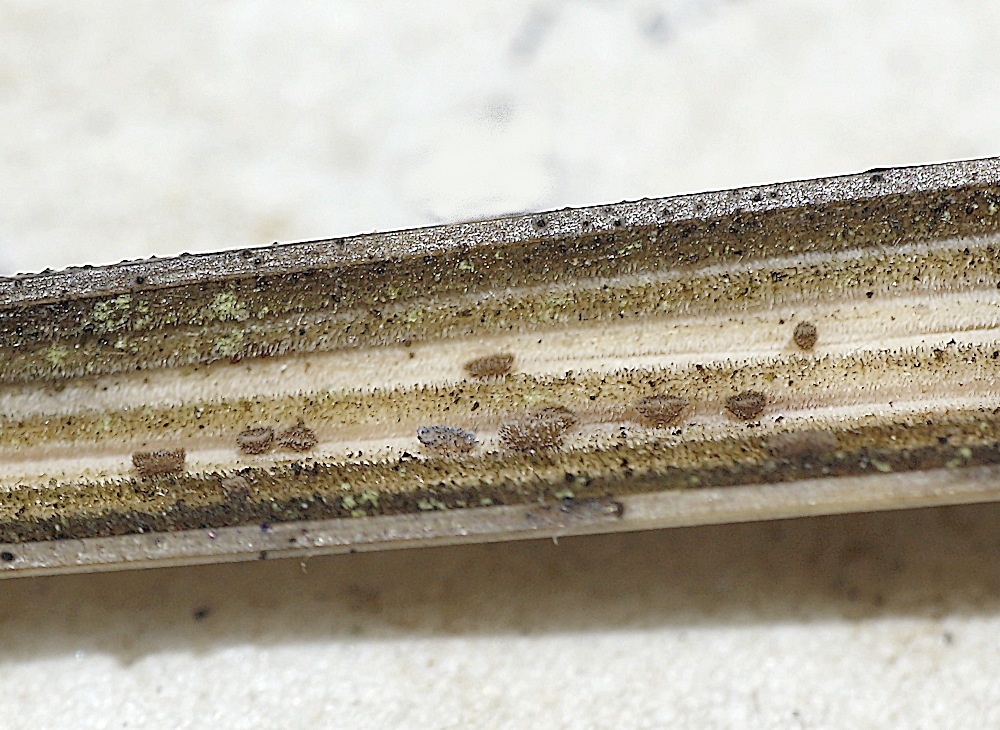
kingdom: Fungi
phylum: Ascomycota
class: Leotiomycetes
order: Helotiales
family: Lachnaceae
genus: Brunnipila
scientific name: Brunnipila palearum
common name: brunhåret frynseskive
